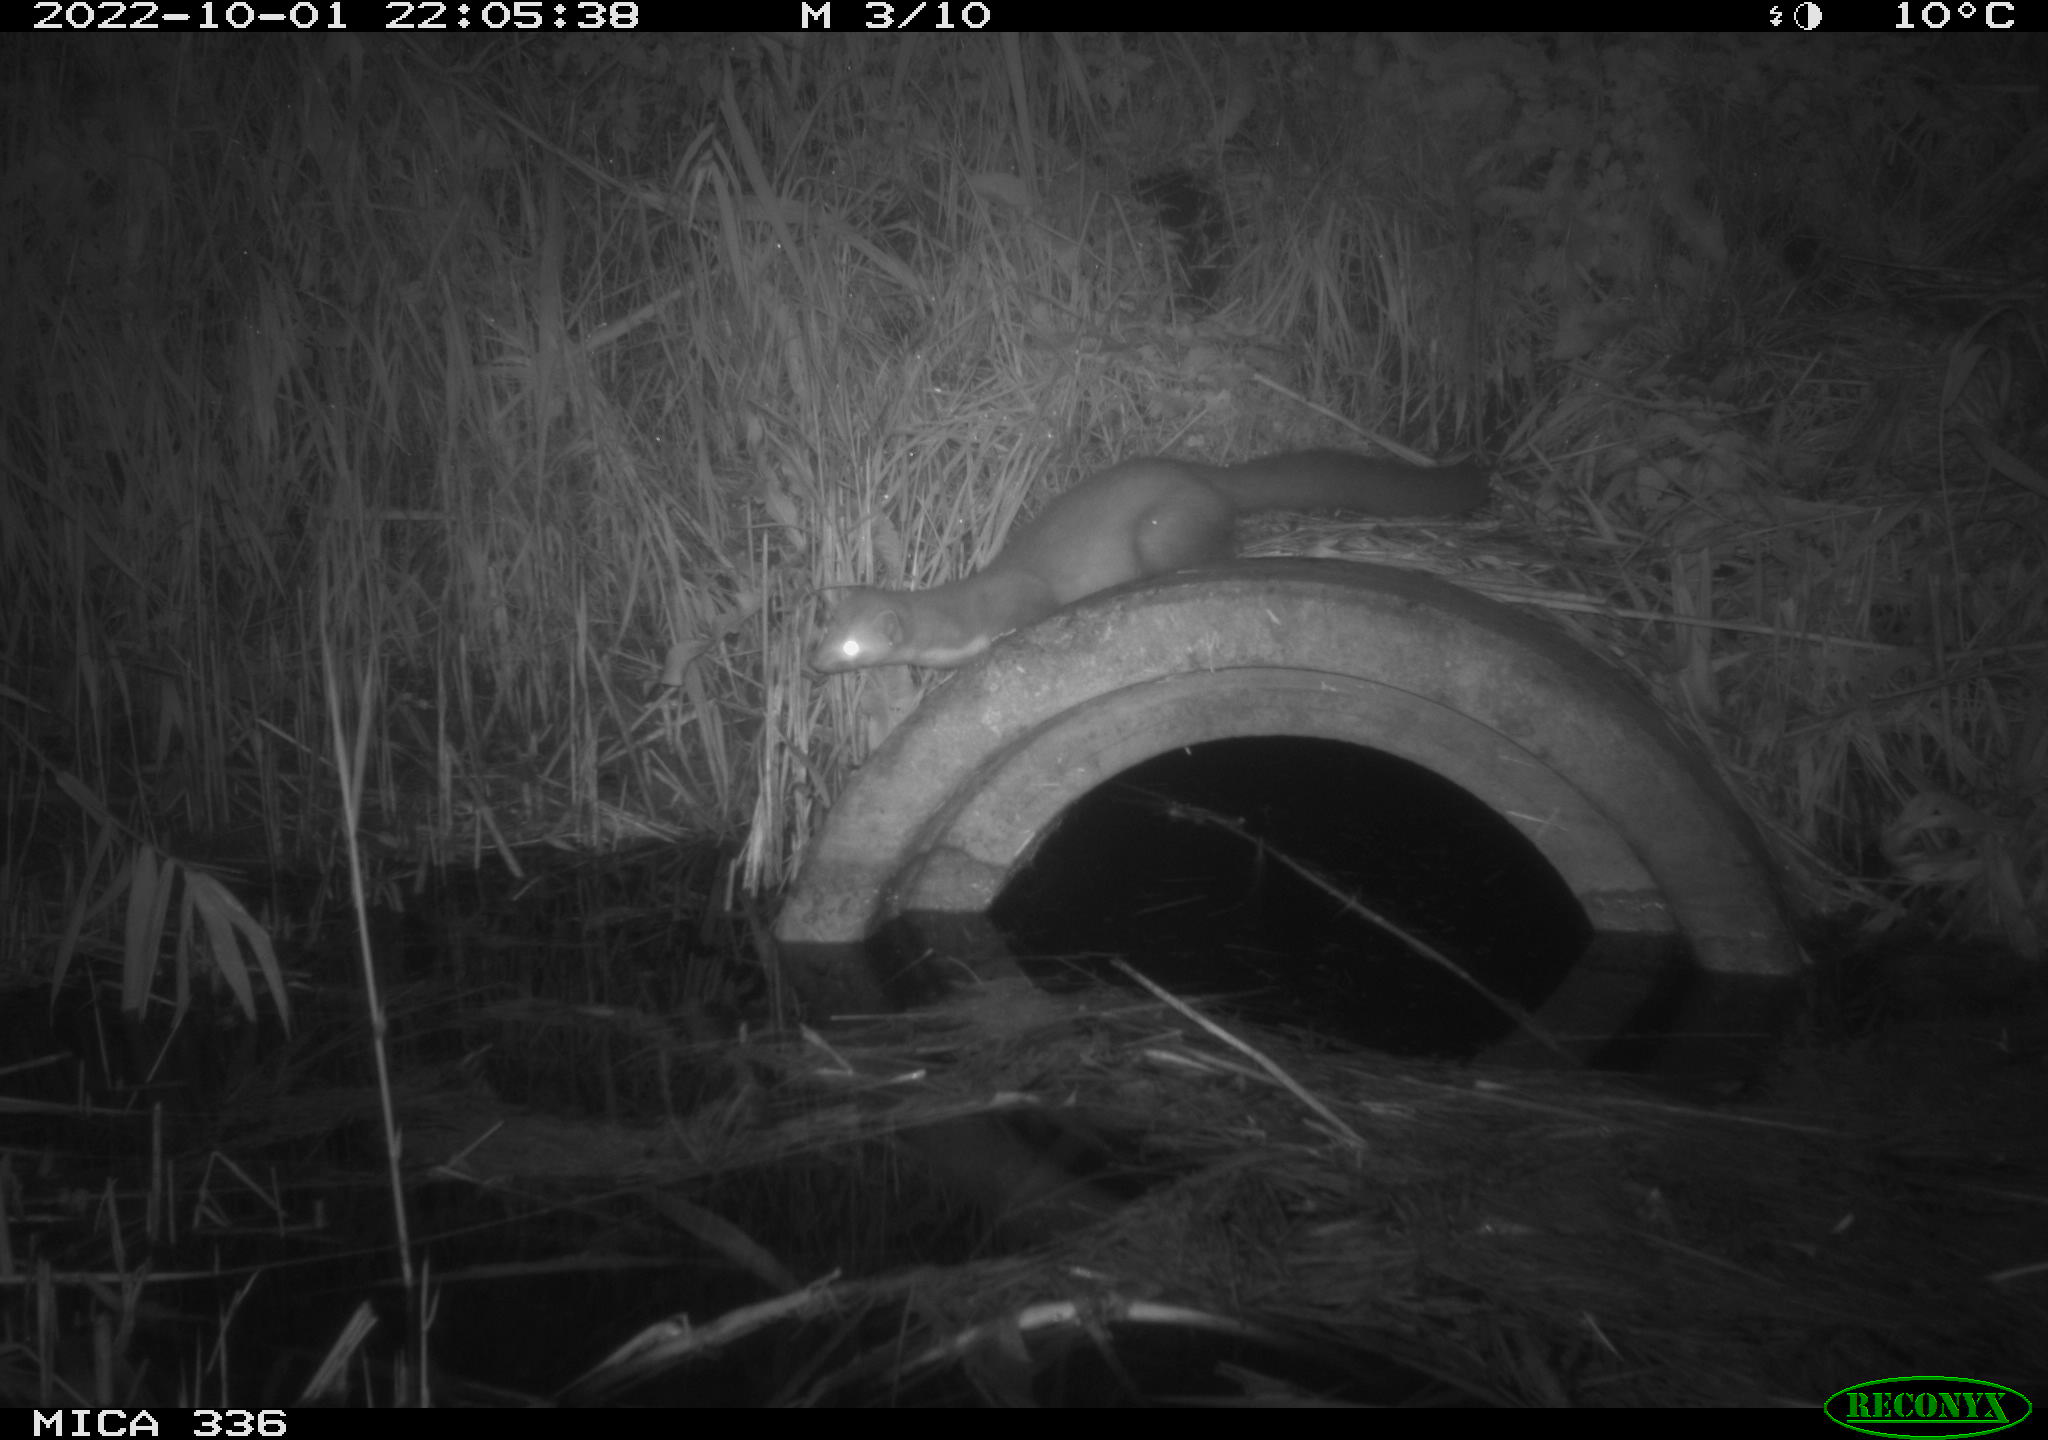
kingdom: Animalia
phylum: Chordata
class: Mammalia
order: Carnivora
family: Mustelidae
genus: Martes
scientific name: Martes foina
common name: Beech marten
